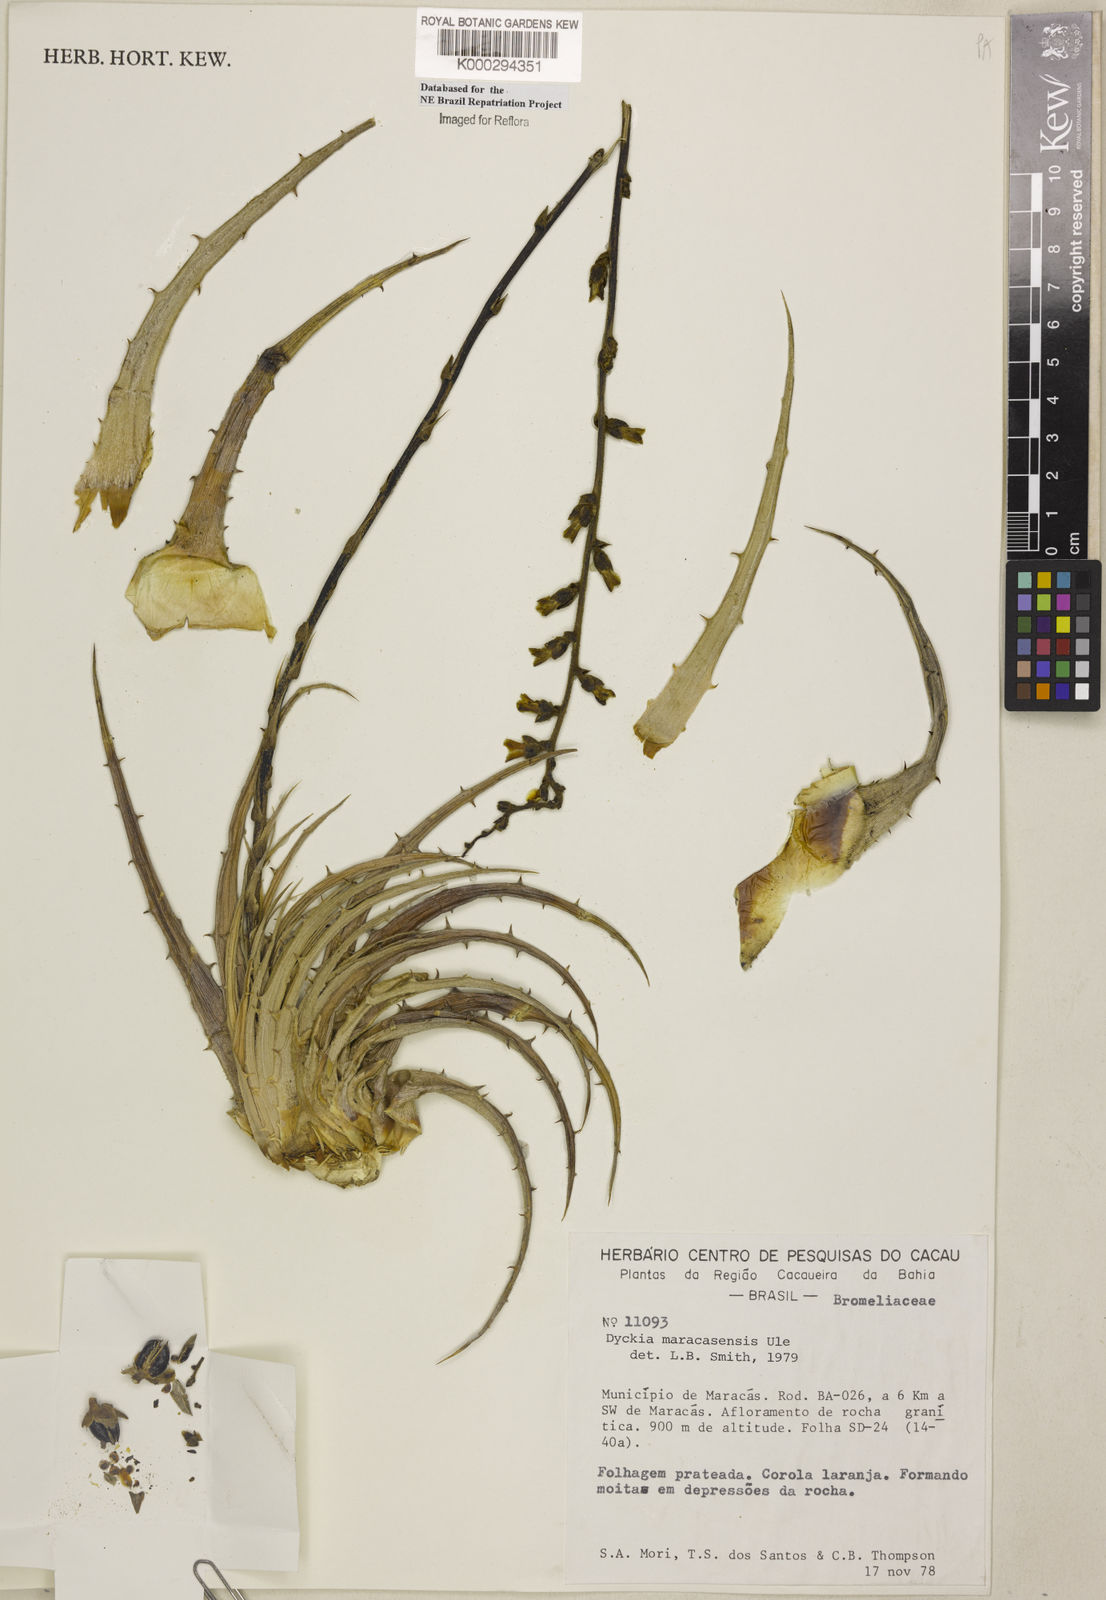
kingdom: Plantae
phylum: Tracheophyta
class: Liliopsida
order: Poales
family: Bromeliaceae
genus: Dyckia
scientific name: Dyckia maracasensis
